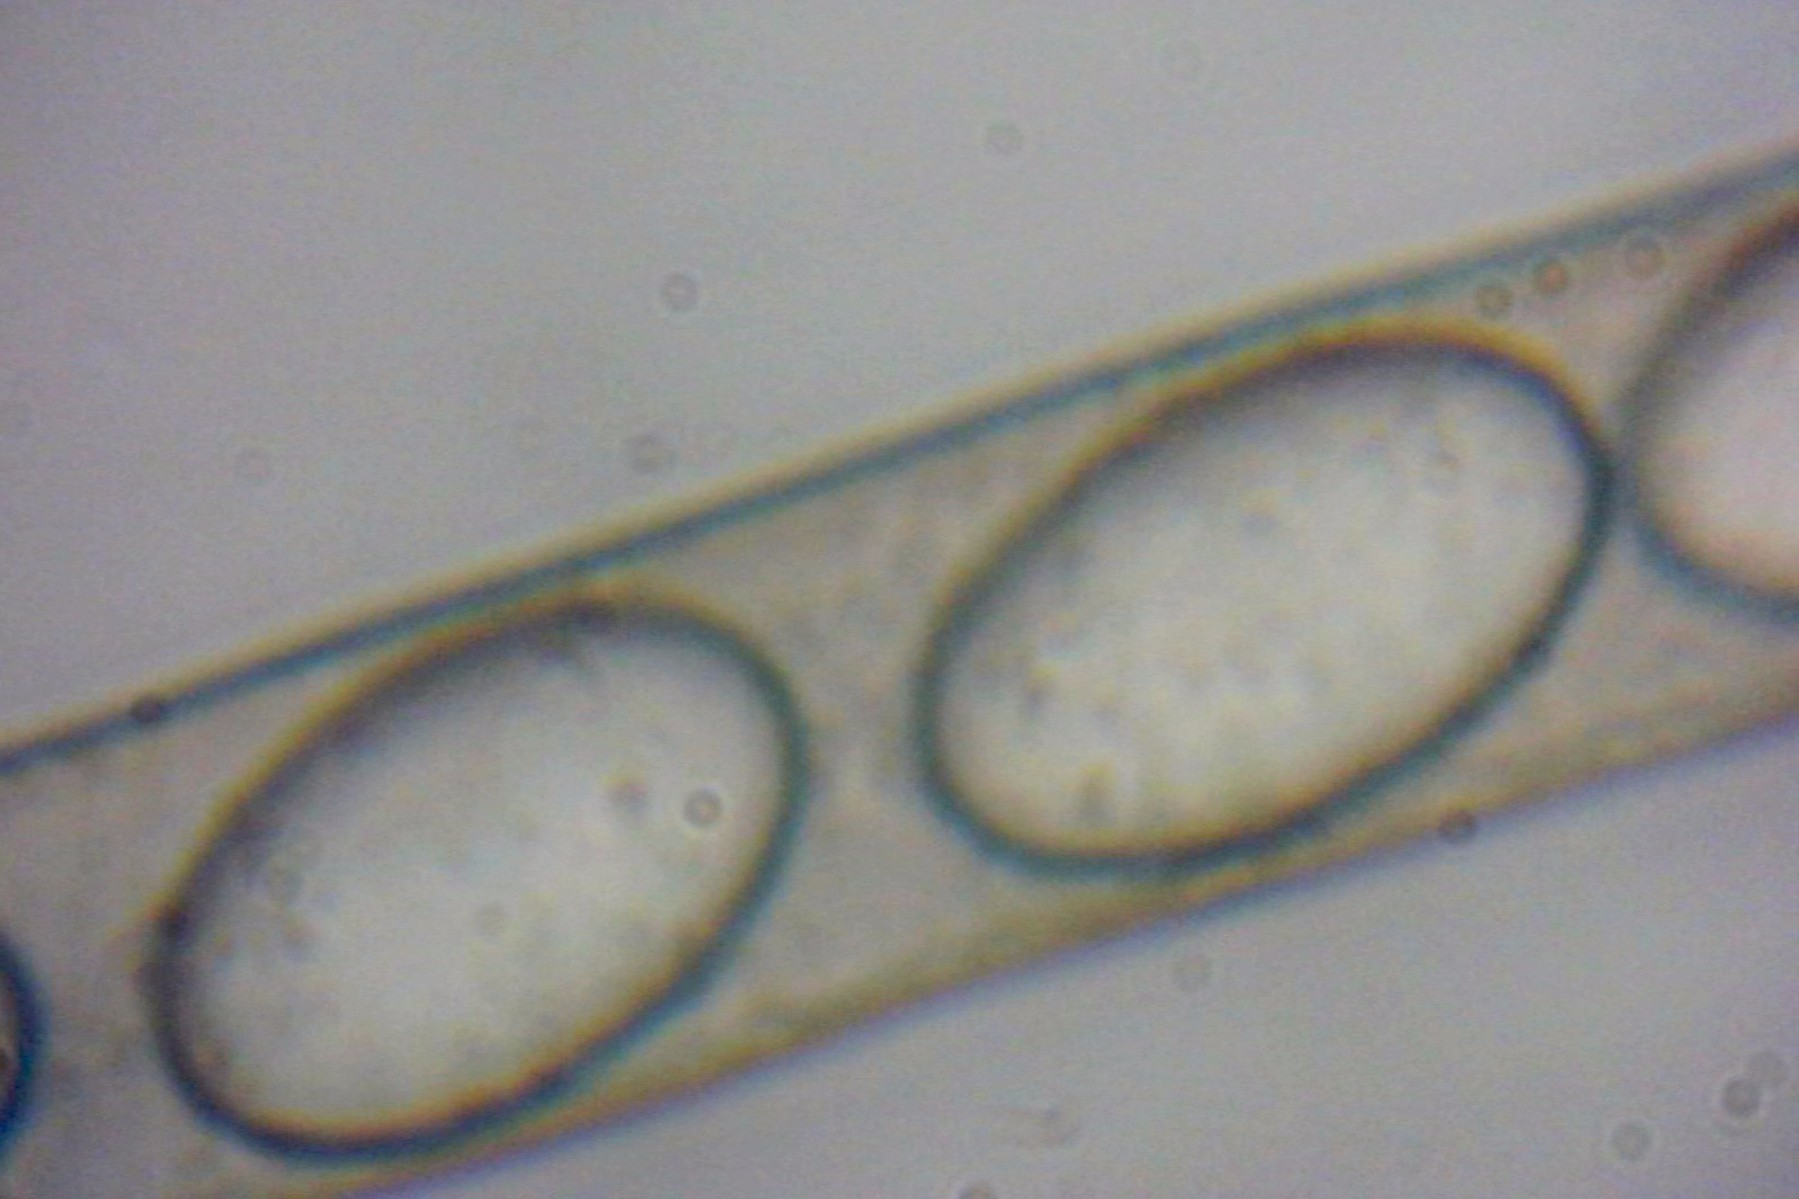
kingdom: Fungi
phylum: Ascomycota
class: Pezizomycetes
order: Pezizales
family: Pezizaceae
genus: Peziza
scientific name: Peziza vesiculosa
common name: blære-bægersvamp
